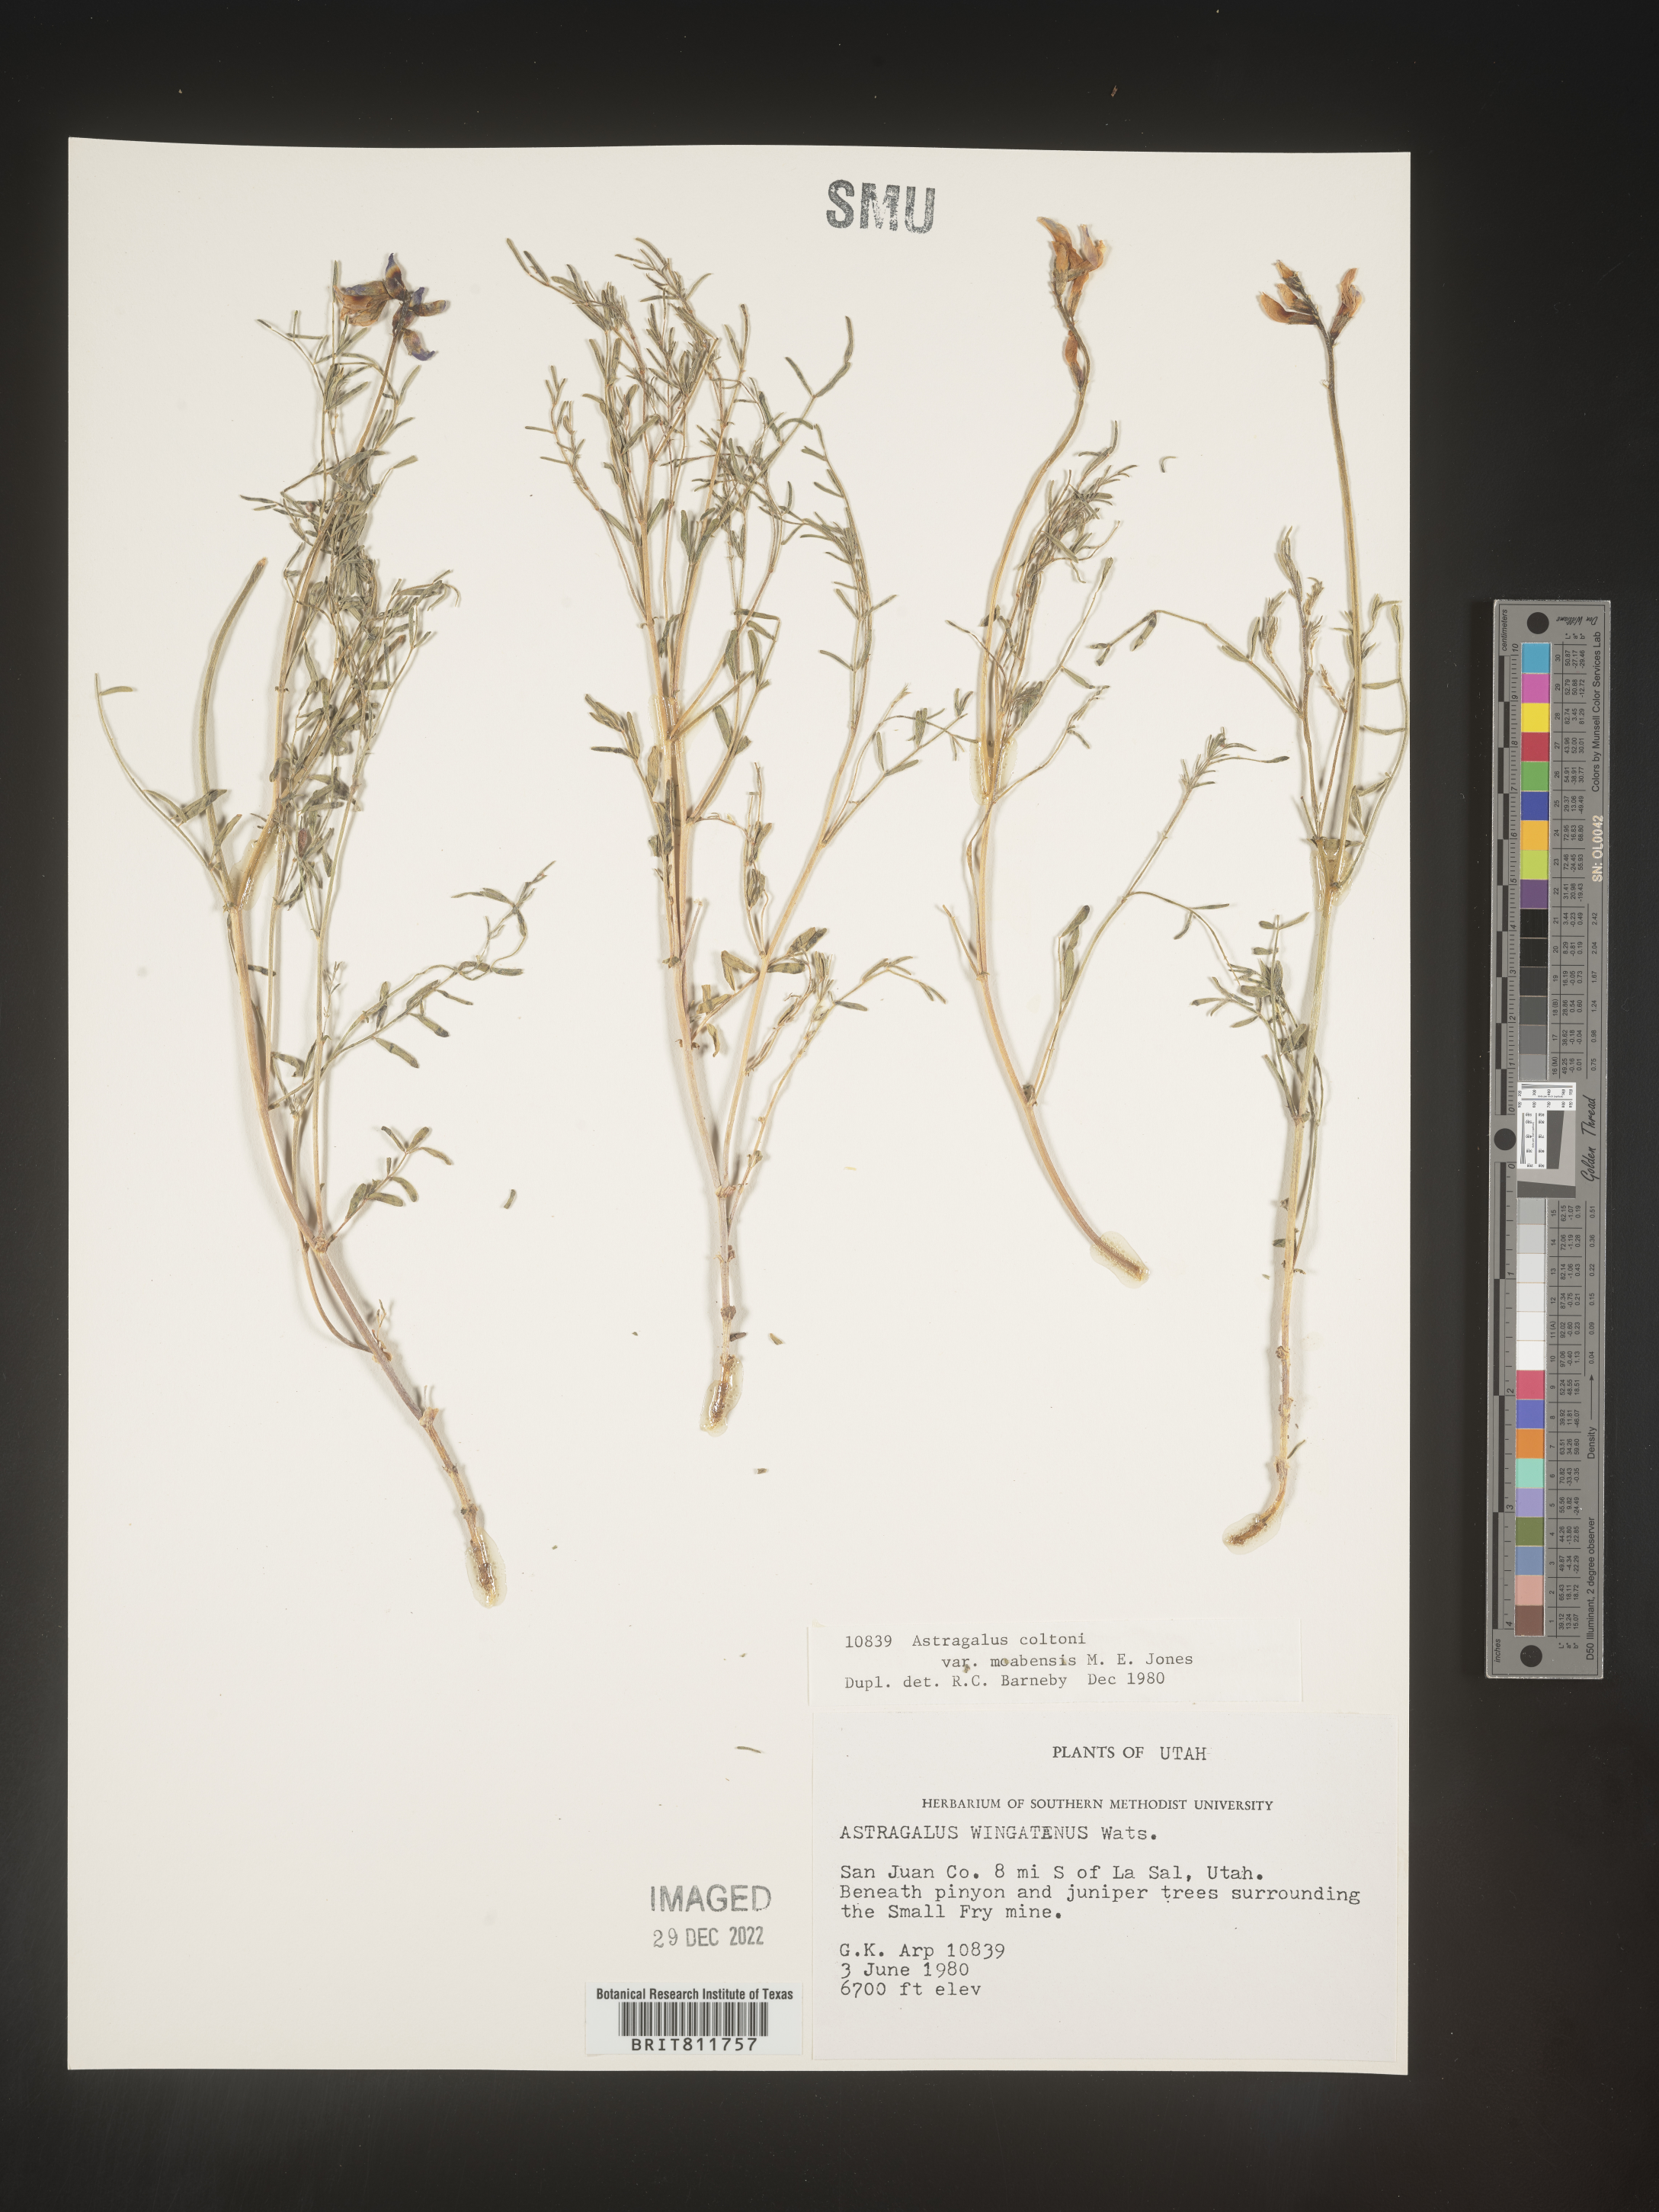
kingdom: Plantae
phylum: Tracheophyta
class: Magnoliopsida
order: Fabales
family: Fabaceae
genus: Astragalus
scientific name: Astragalus
